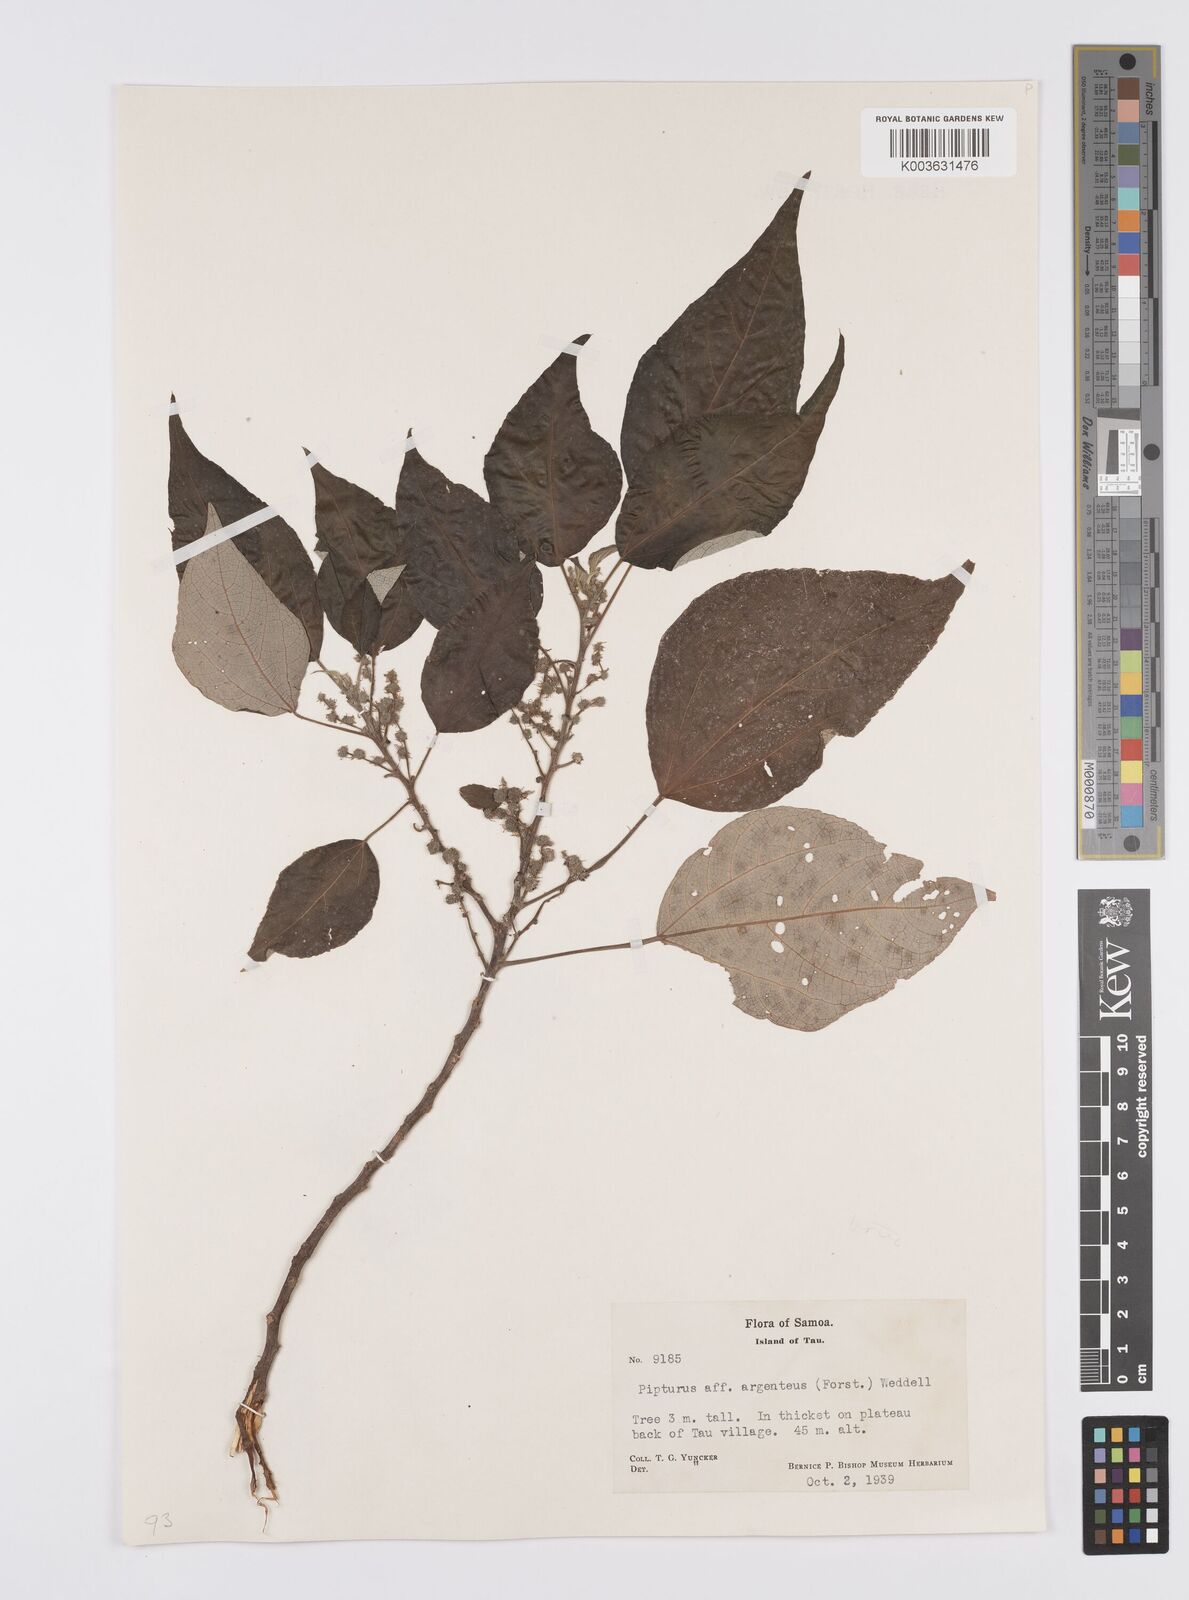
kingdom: Plantae
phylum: Tracheophyta
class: Magnoliopsida
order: Rosales
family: Urticaceae
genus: Pipturus
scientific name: Pipturus argenteus
